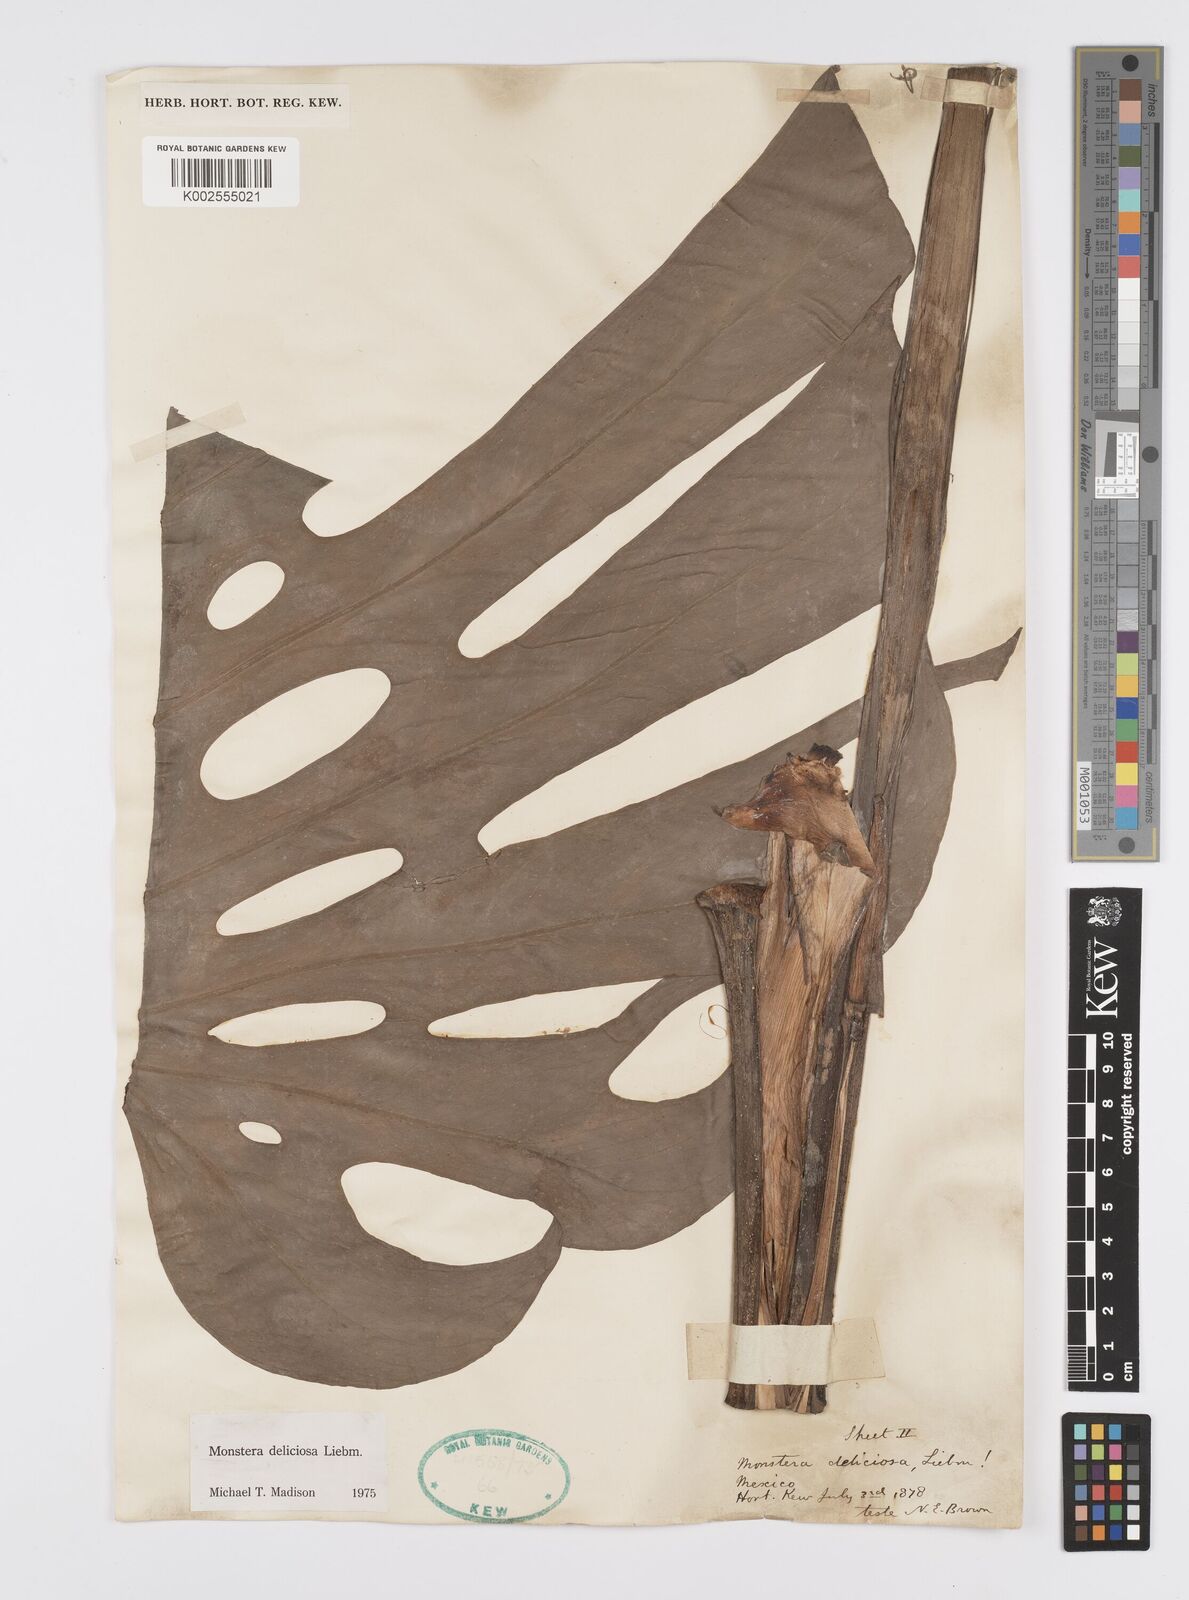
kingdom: Plantae
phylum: Tracheophyta
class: Liliopsida
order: Alismatales
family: Araceae
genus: Monstera
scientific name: Monstera deliciosa
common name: Cut-leaf-philodendron
